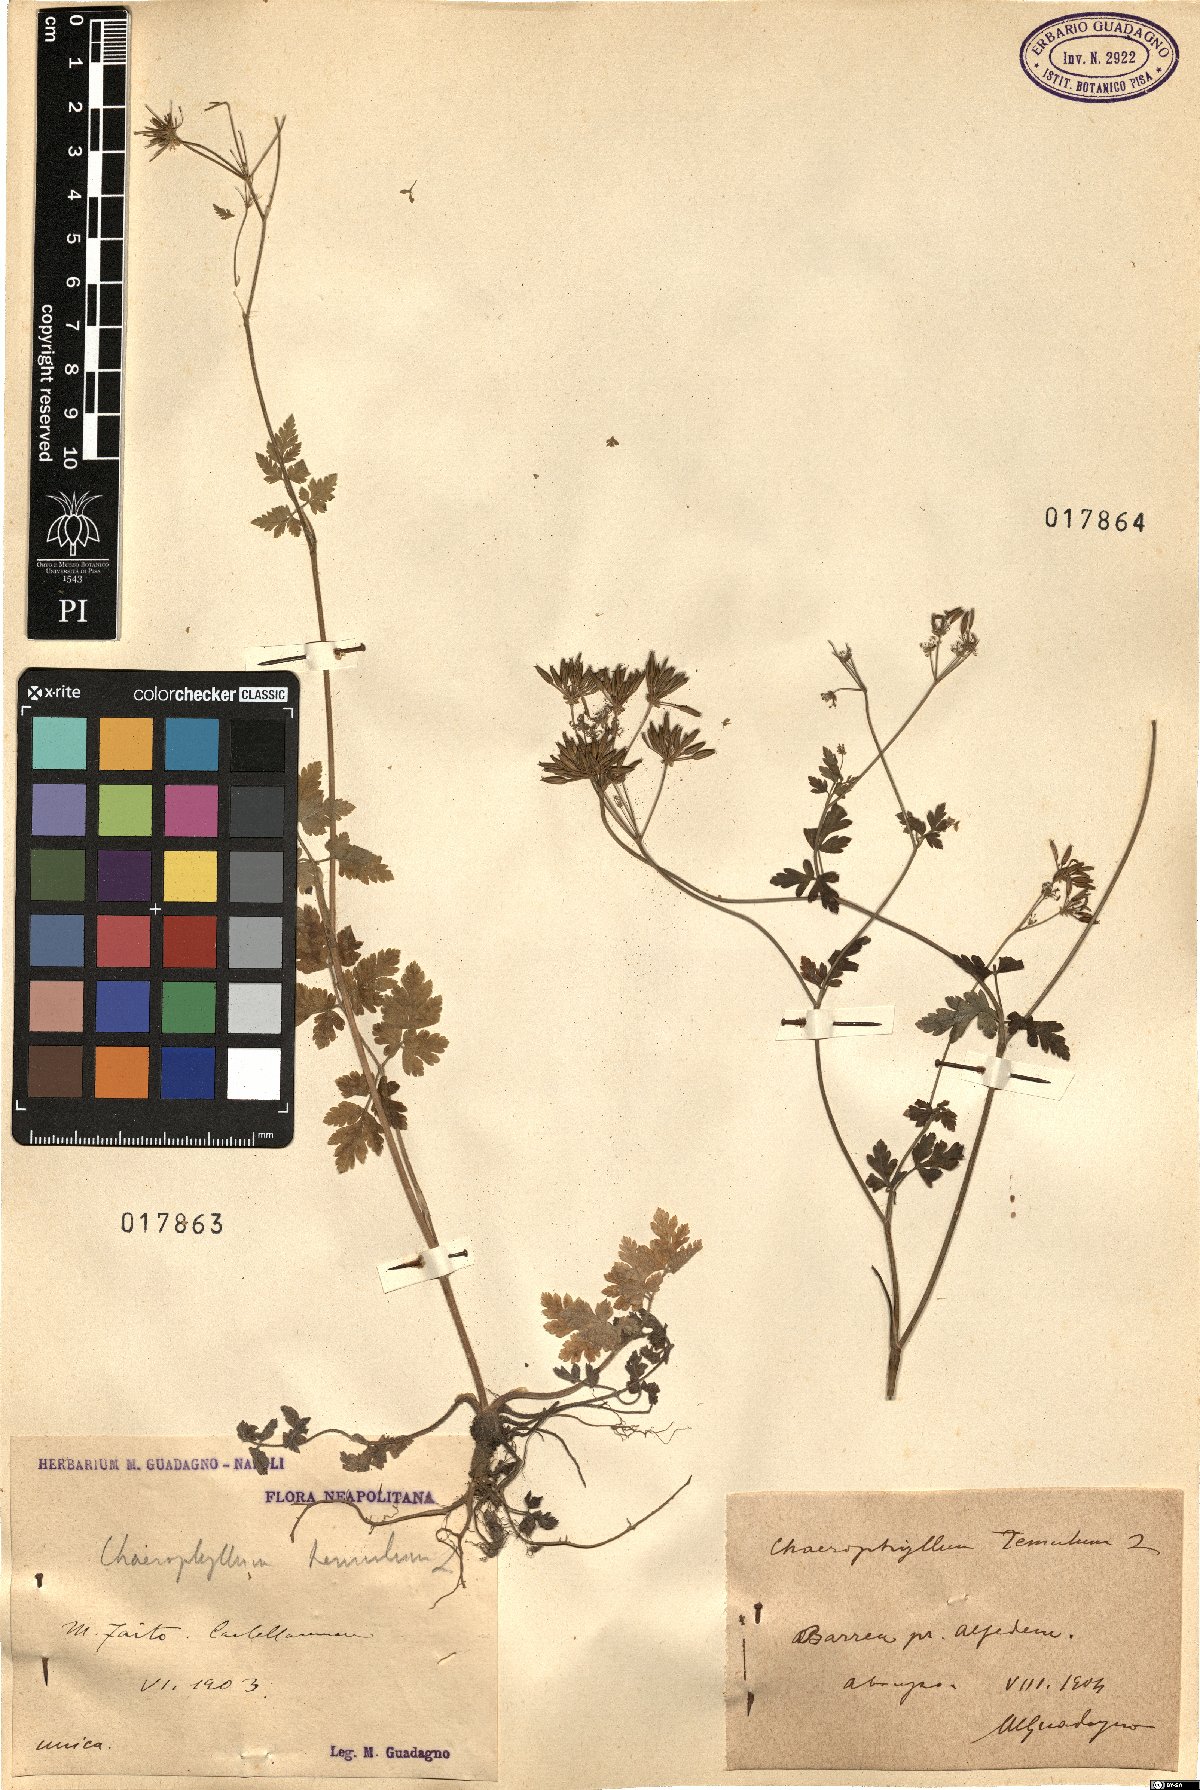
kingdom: Plantae
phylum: Tracheophyta
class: Magnoliopsida
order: Apiales
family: Apiaceae
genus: Chaerophyllum
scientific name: Chaerophyllum temulum
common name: Rough chervil
